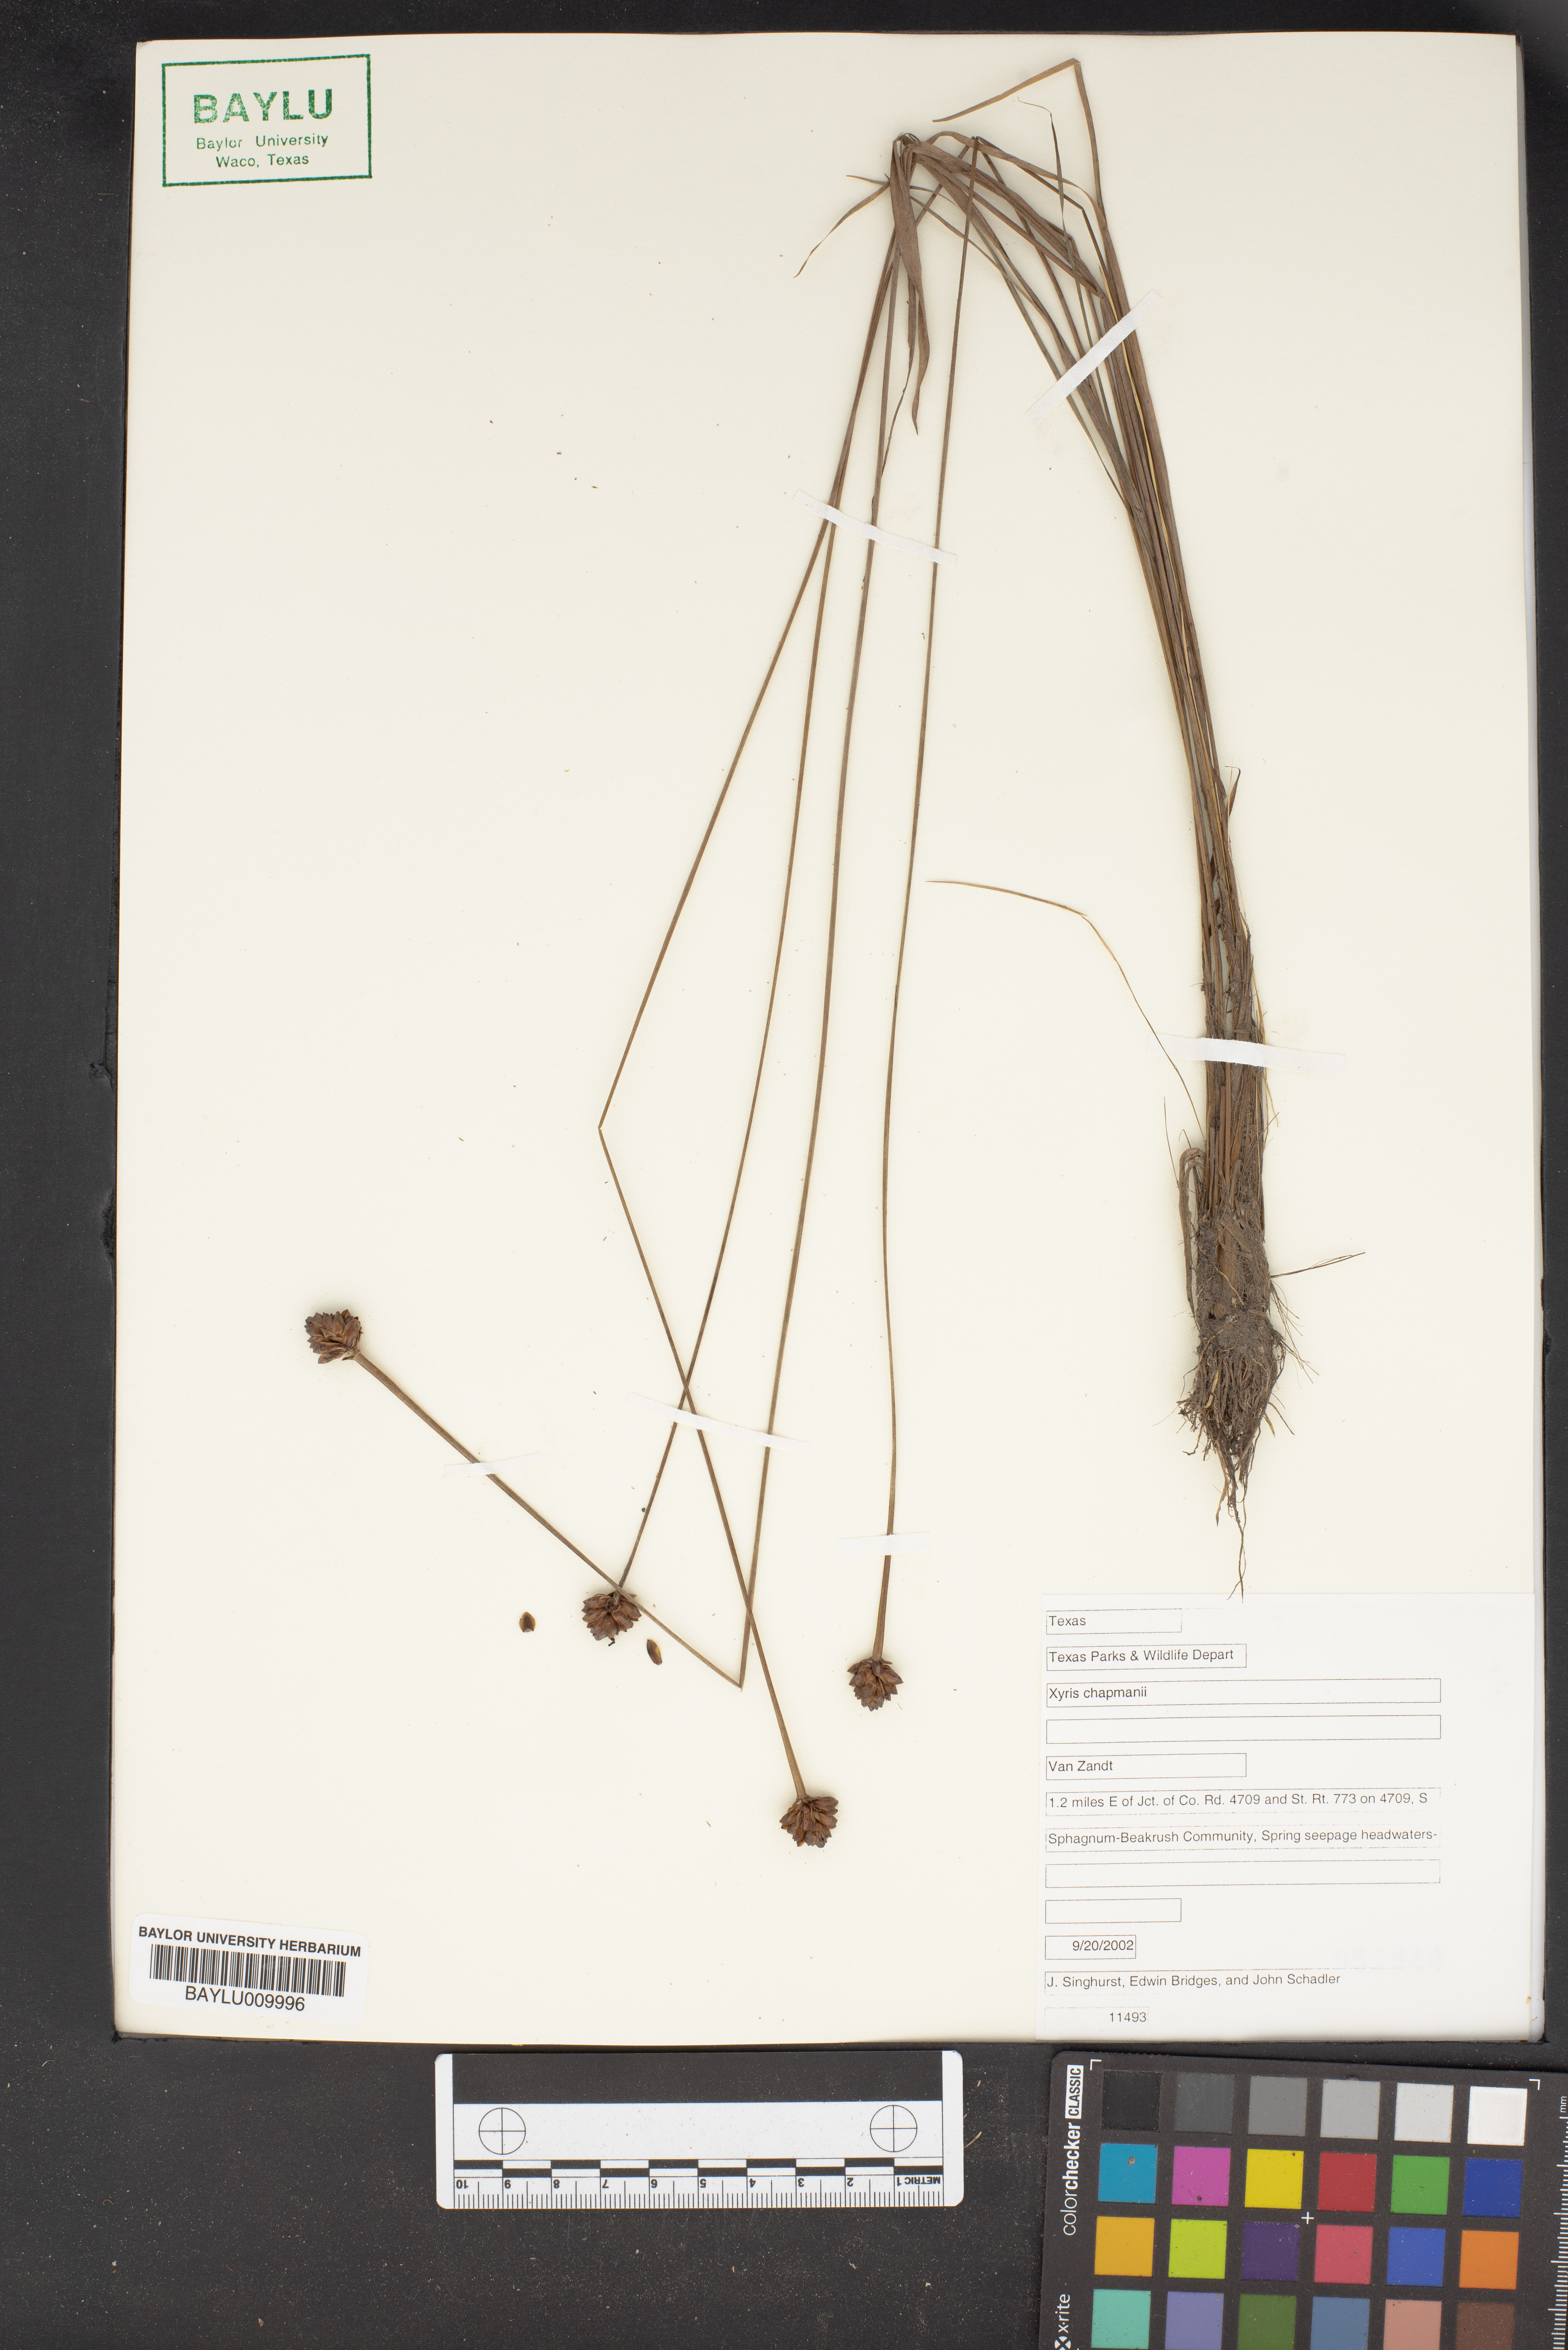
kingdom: Plantae
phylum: Tracheophyta
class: Liliopsida
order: Poales
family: Xyridaceae
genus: Xyris
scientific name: Xyris chapmanii
